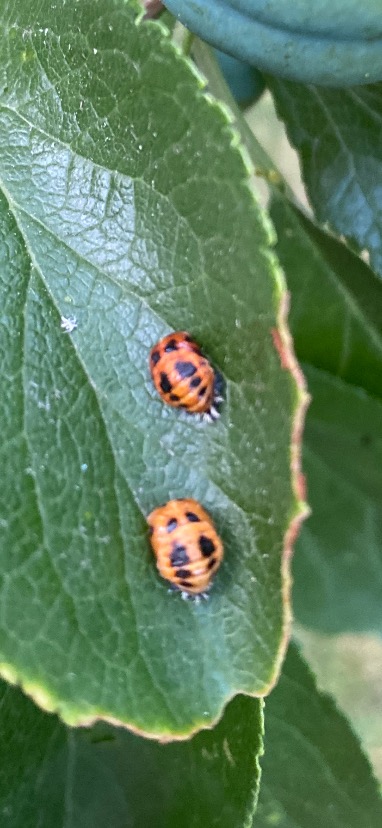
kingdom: Animalia
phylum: Arthropoda
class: Insecta
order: Coleoptera
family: Coccinellidae
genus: Harmonia
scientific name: Harmonia axyridis
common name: Harlekinmariehøne
